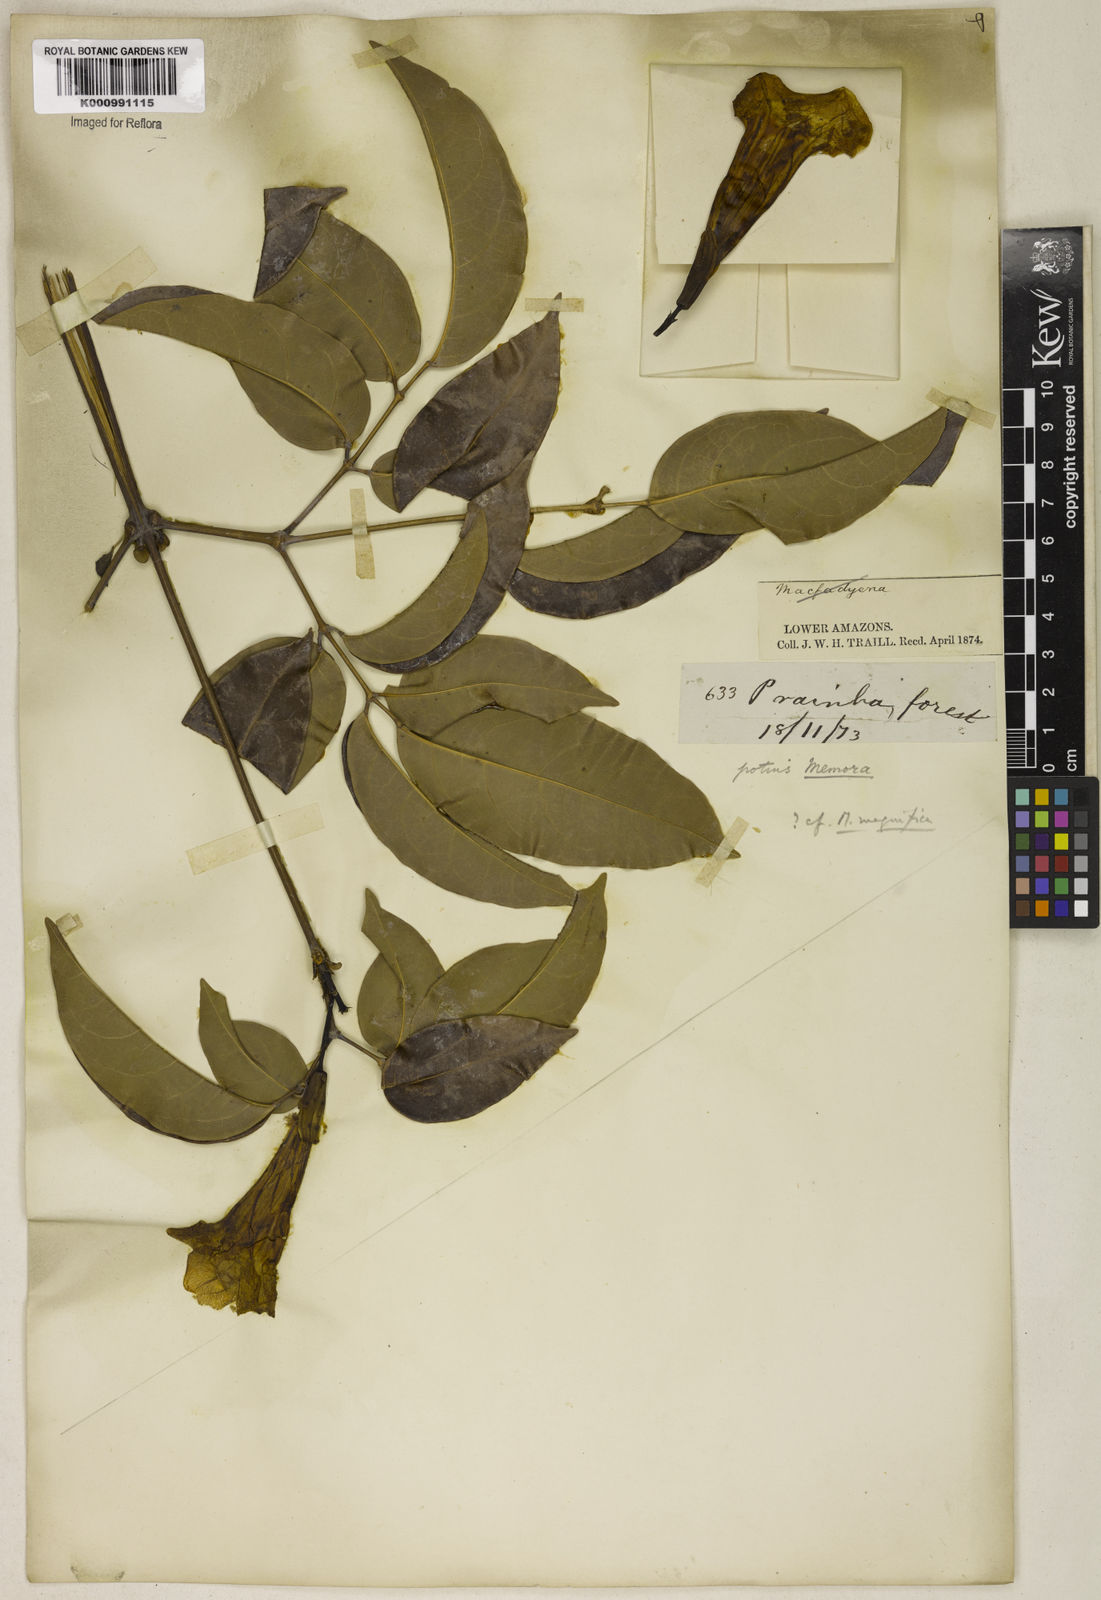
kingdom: Plantae
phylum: Tracheophyta
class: Magnoliopsida
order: Lamiales
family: Bignoniaceae
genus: Adenocalymma
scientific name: Adenocalymma
